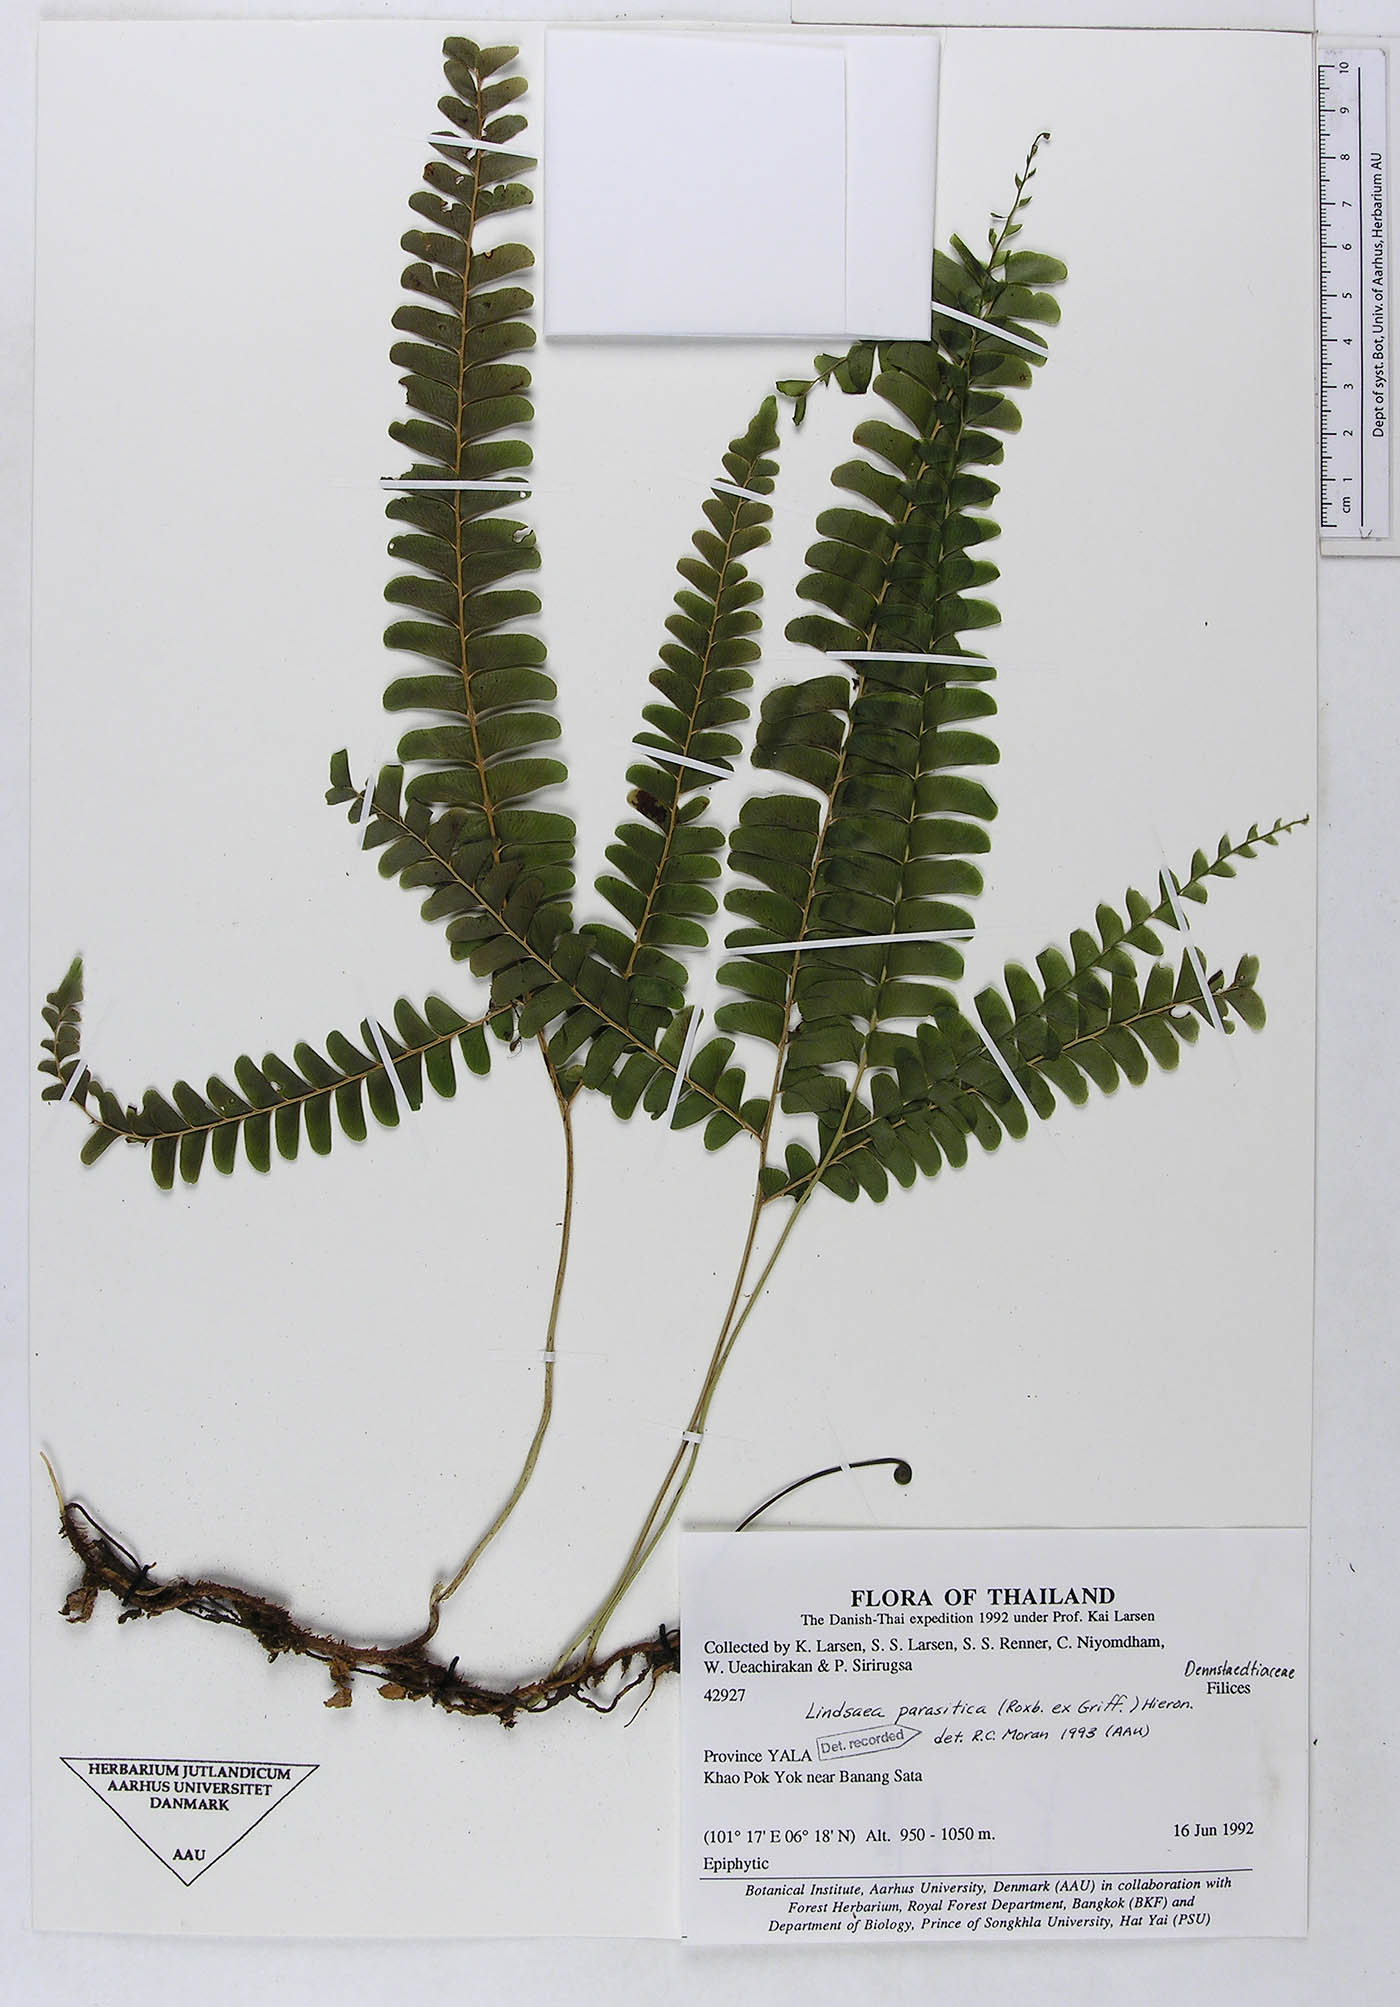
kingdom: Plantae
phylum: Tracheophyta
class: Polypodiopsida
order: Polypodiales
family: Lindsaeaceae
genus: Nesolindsaea
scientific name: Nesolindsaea caudata
